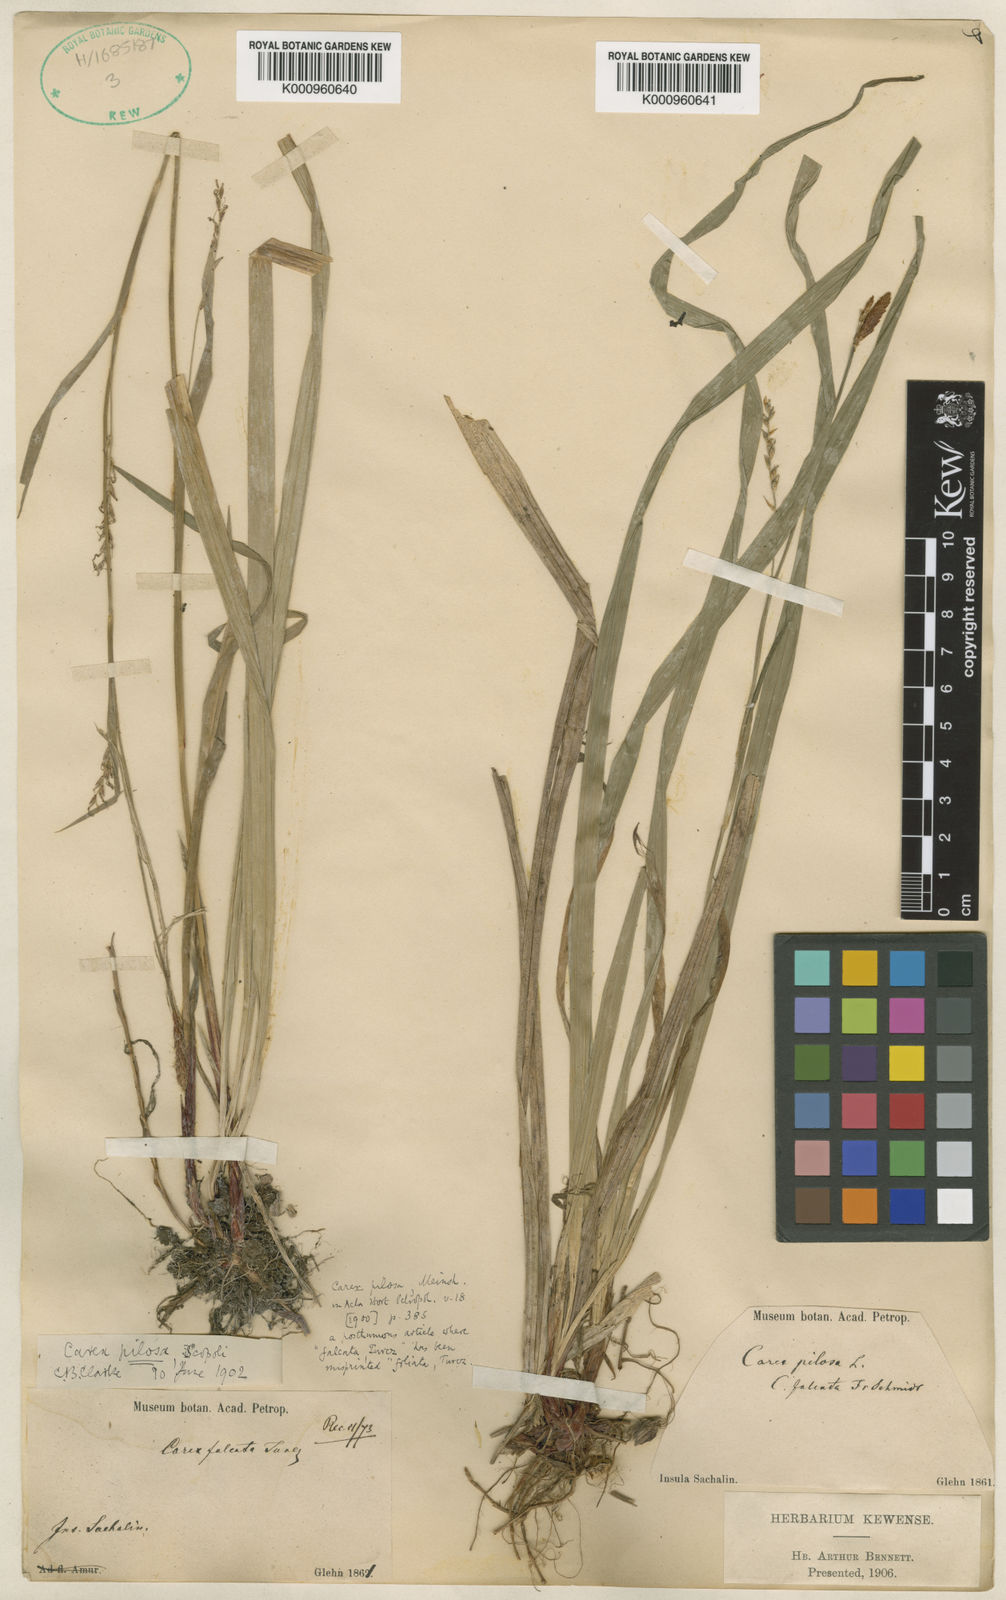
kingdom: Plantae
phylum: Tracheophyta
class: Liliopsida
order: Poales
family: Cyperaceae
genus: Carex
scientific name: Carex pilosa
